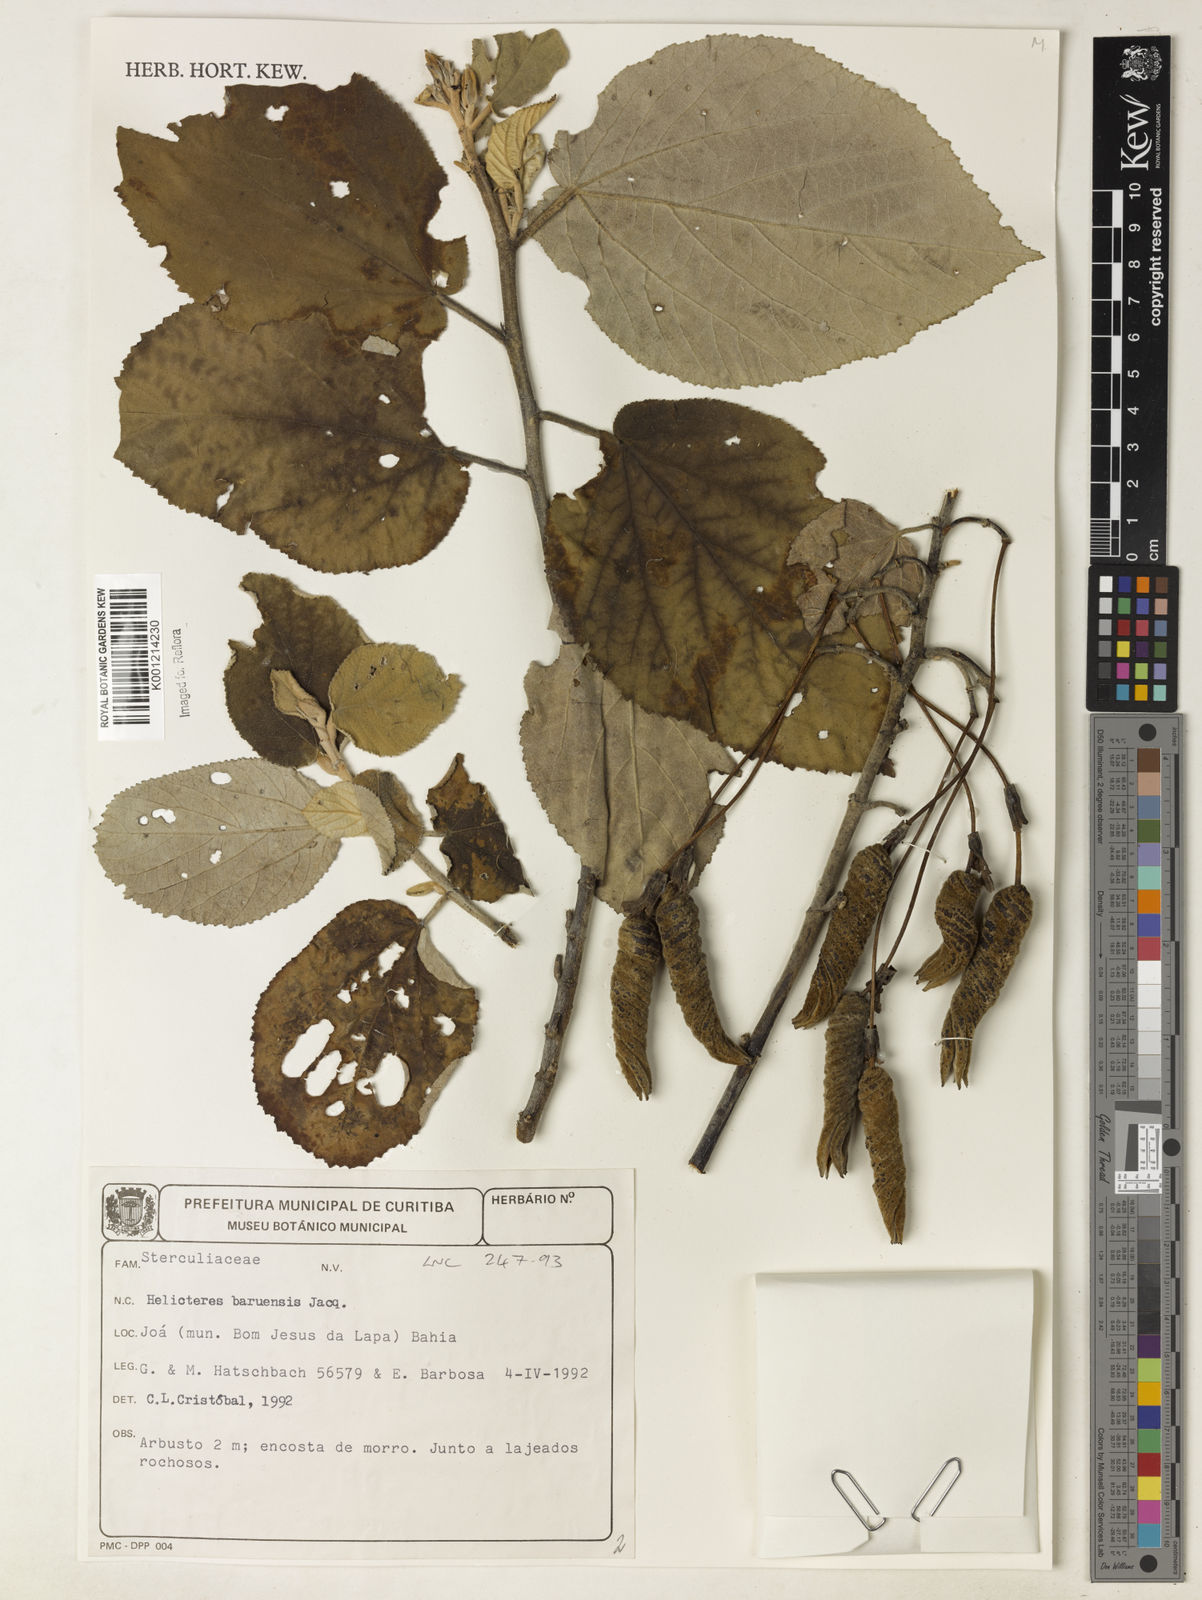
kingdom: Plantae
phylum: Tracheophyta
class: Magnoliopsida
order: Malvales
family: Malvaceae
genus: Helicteres
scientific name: Helicteres baruensis
